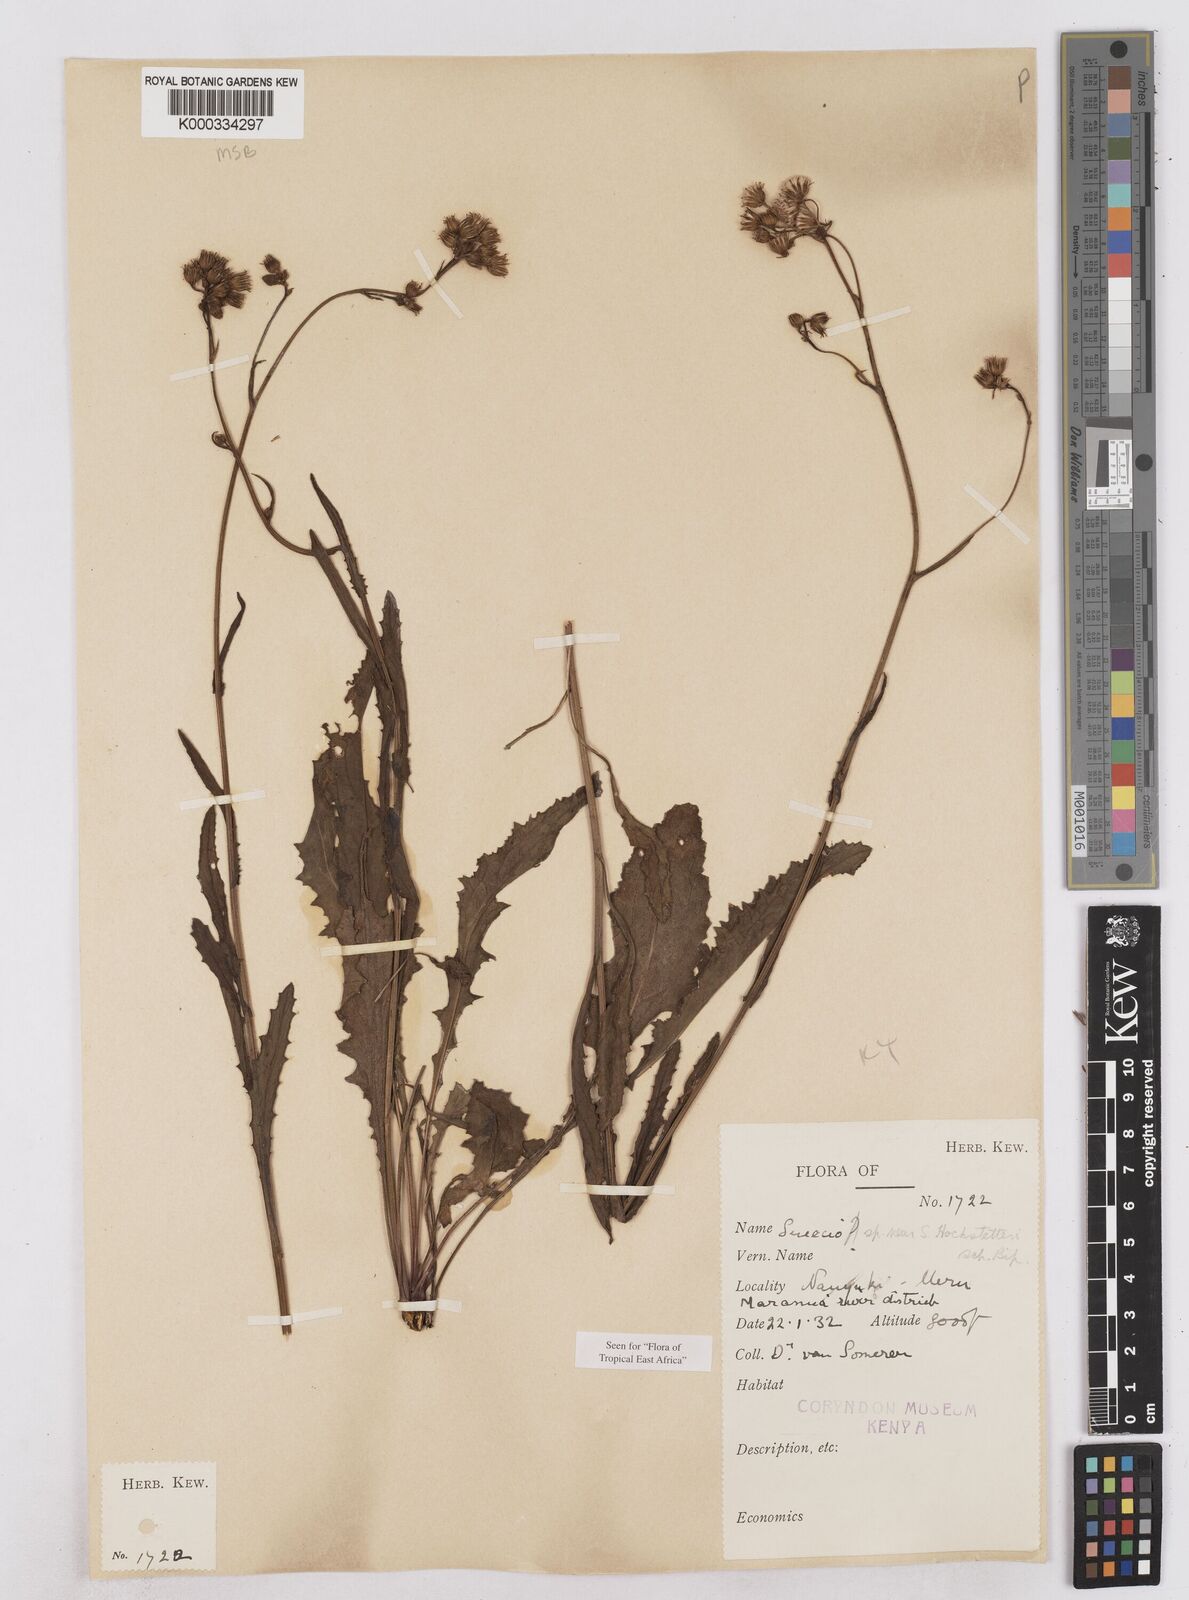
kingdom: Plantae
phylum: Tracheophyta
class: Magnoliopsida
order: Asterales
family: Asteraceae
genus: Senecio
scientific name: Senecio hochstetteri
